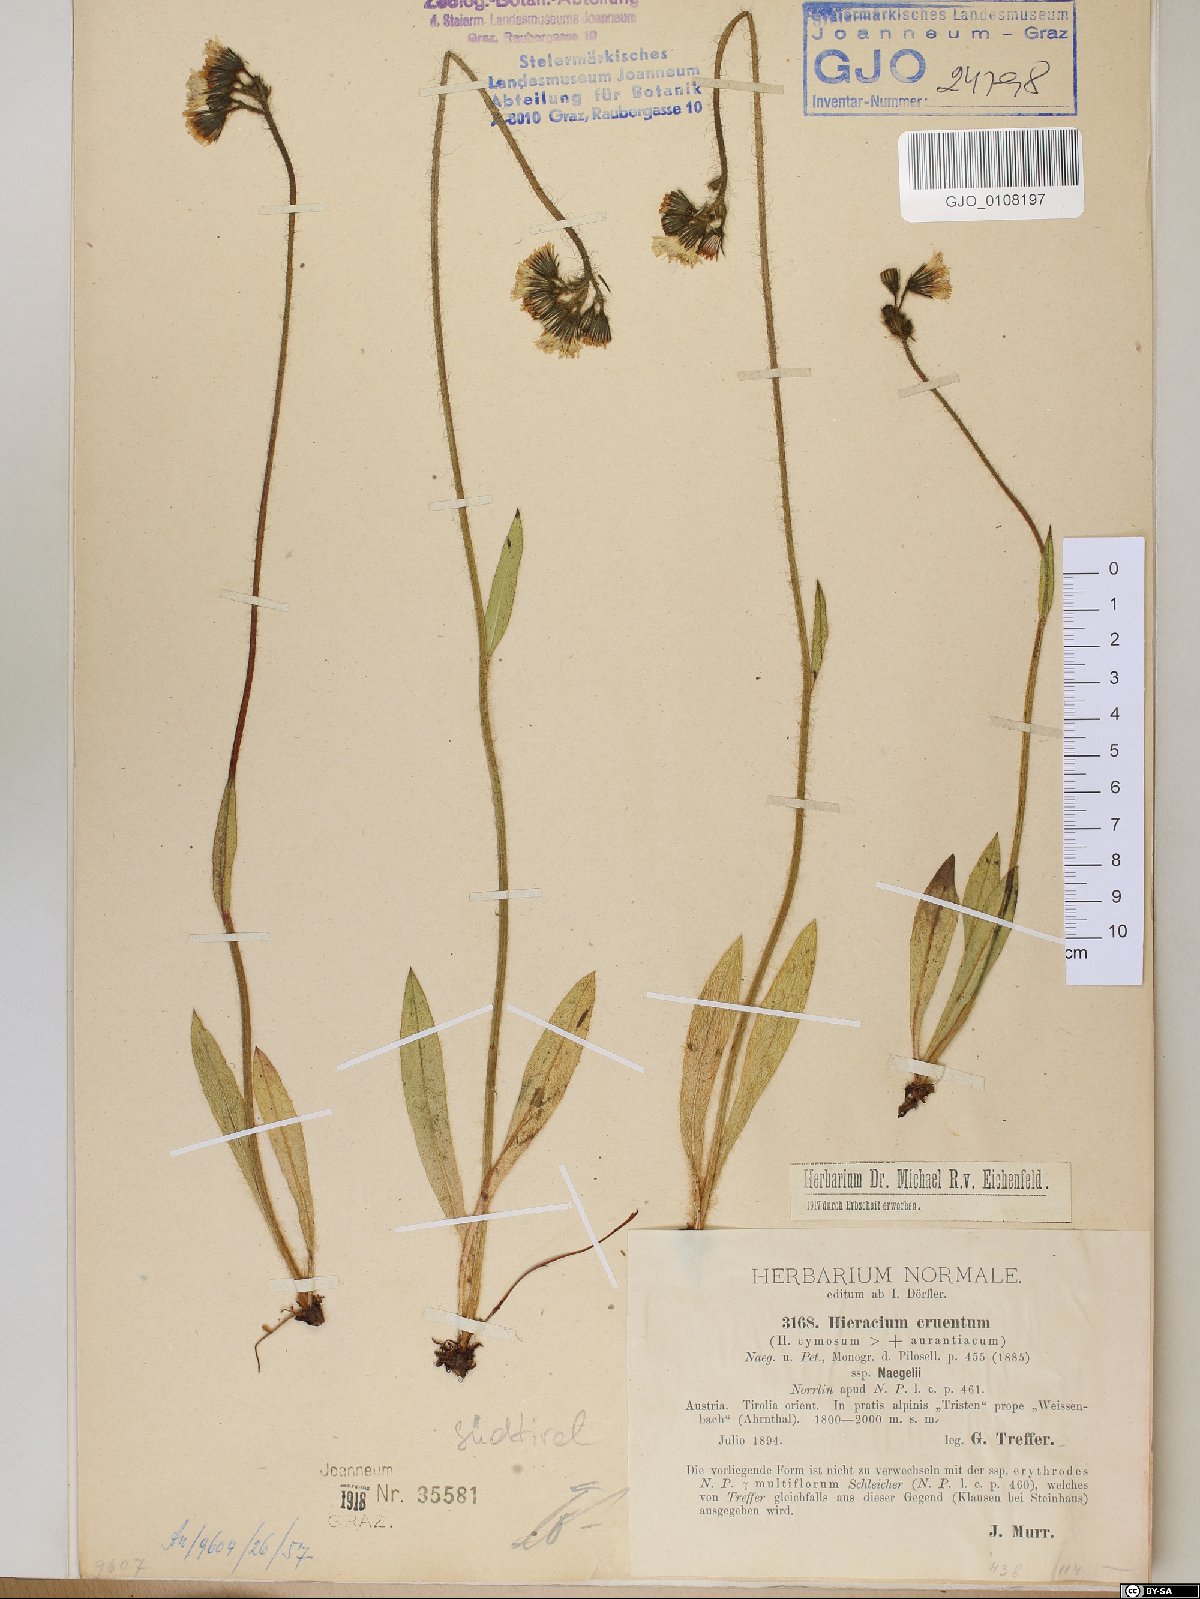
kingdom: Plantae
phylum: Tracheophyta
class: Magnoliopsida
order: Asterales
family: Asteraceae
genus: Pilosella
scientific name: Pilosella guthnikiana
